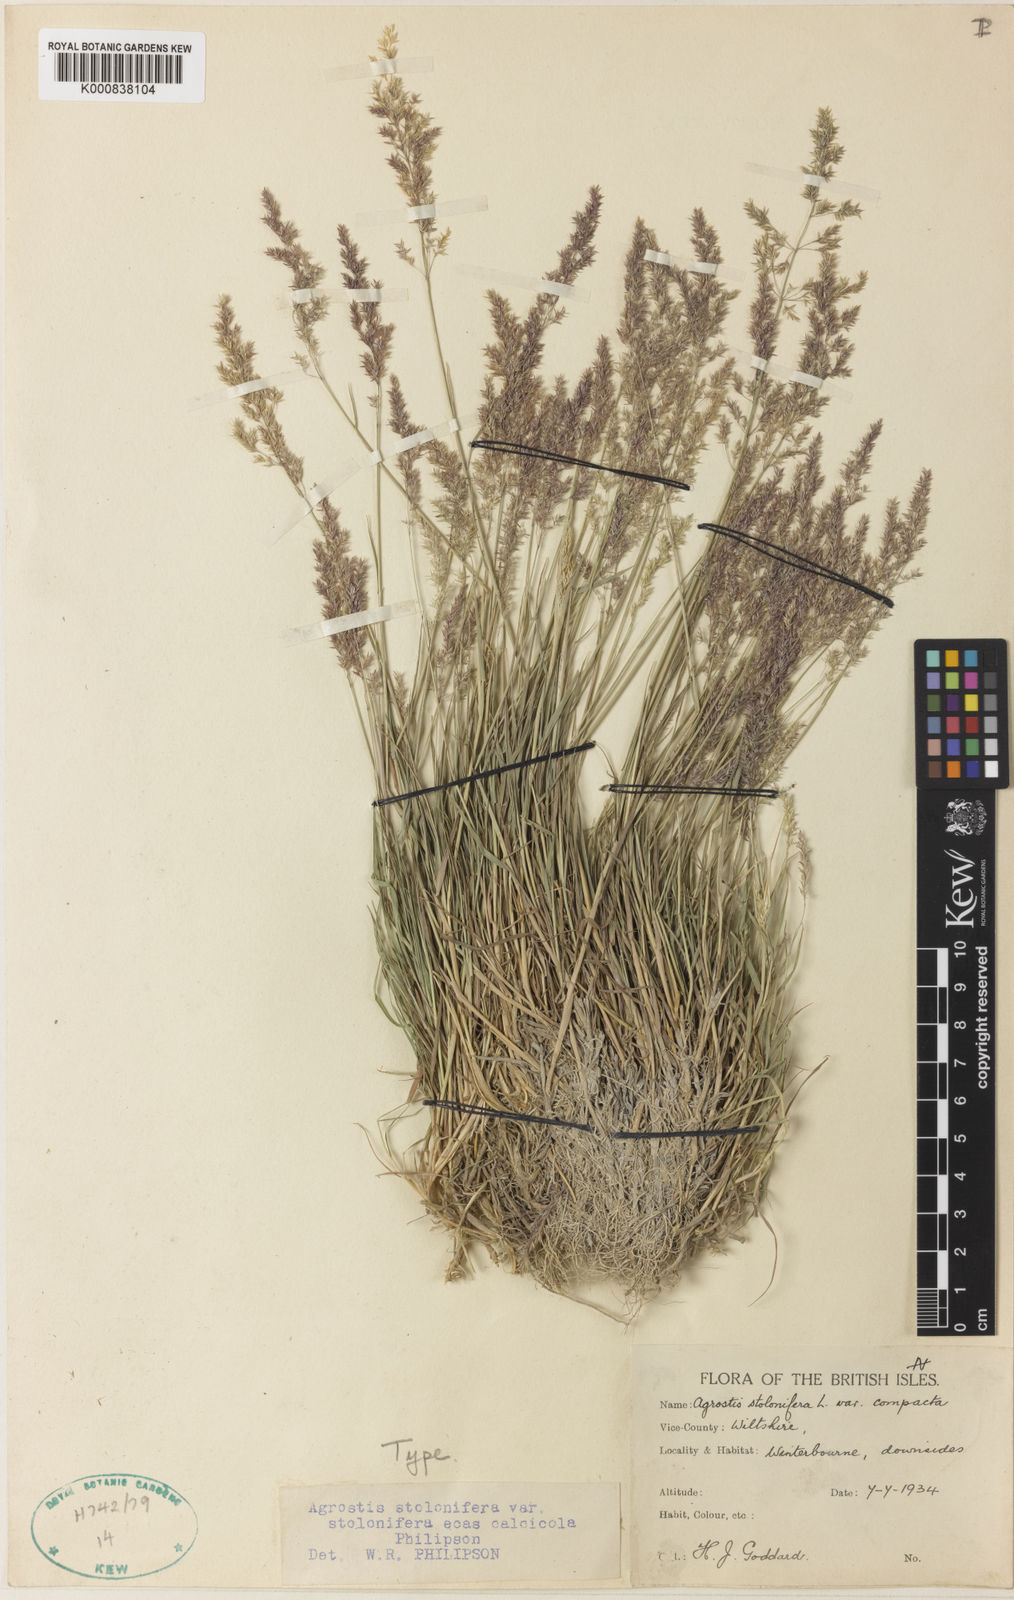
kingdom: Plantae
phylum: Tracheophyta
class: Liliopsida
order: Poales
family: Poaceae
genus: Agrostis
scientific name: Agrostis stolonifera
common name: Creeping bentgrass
